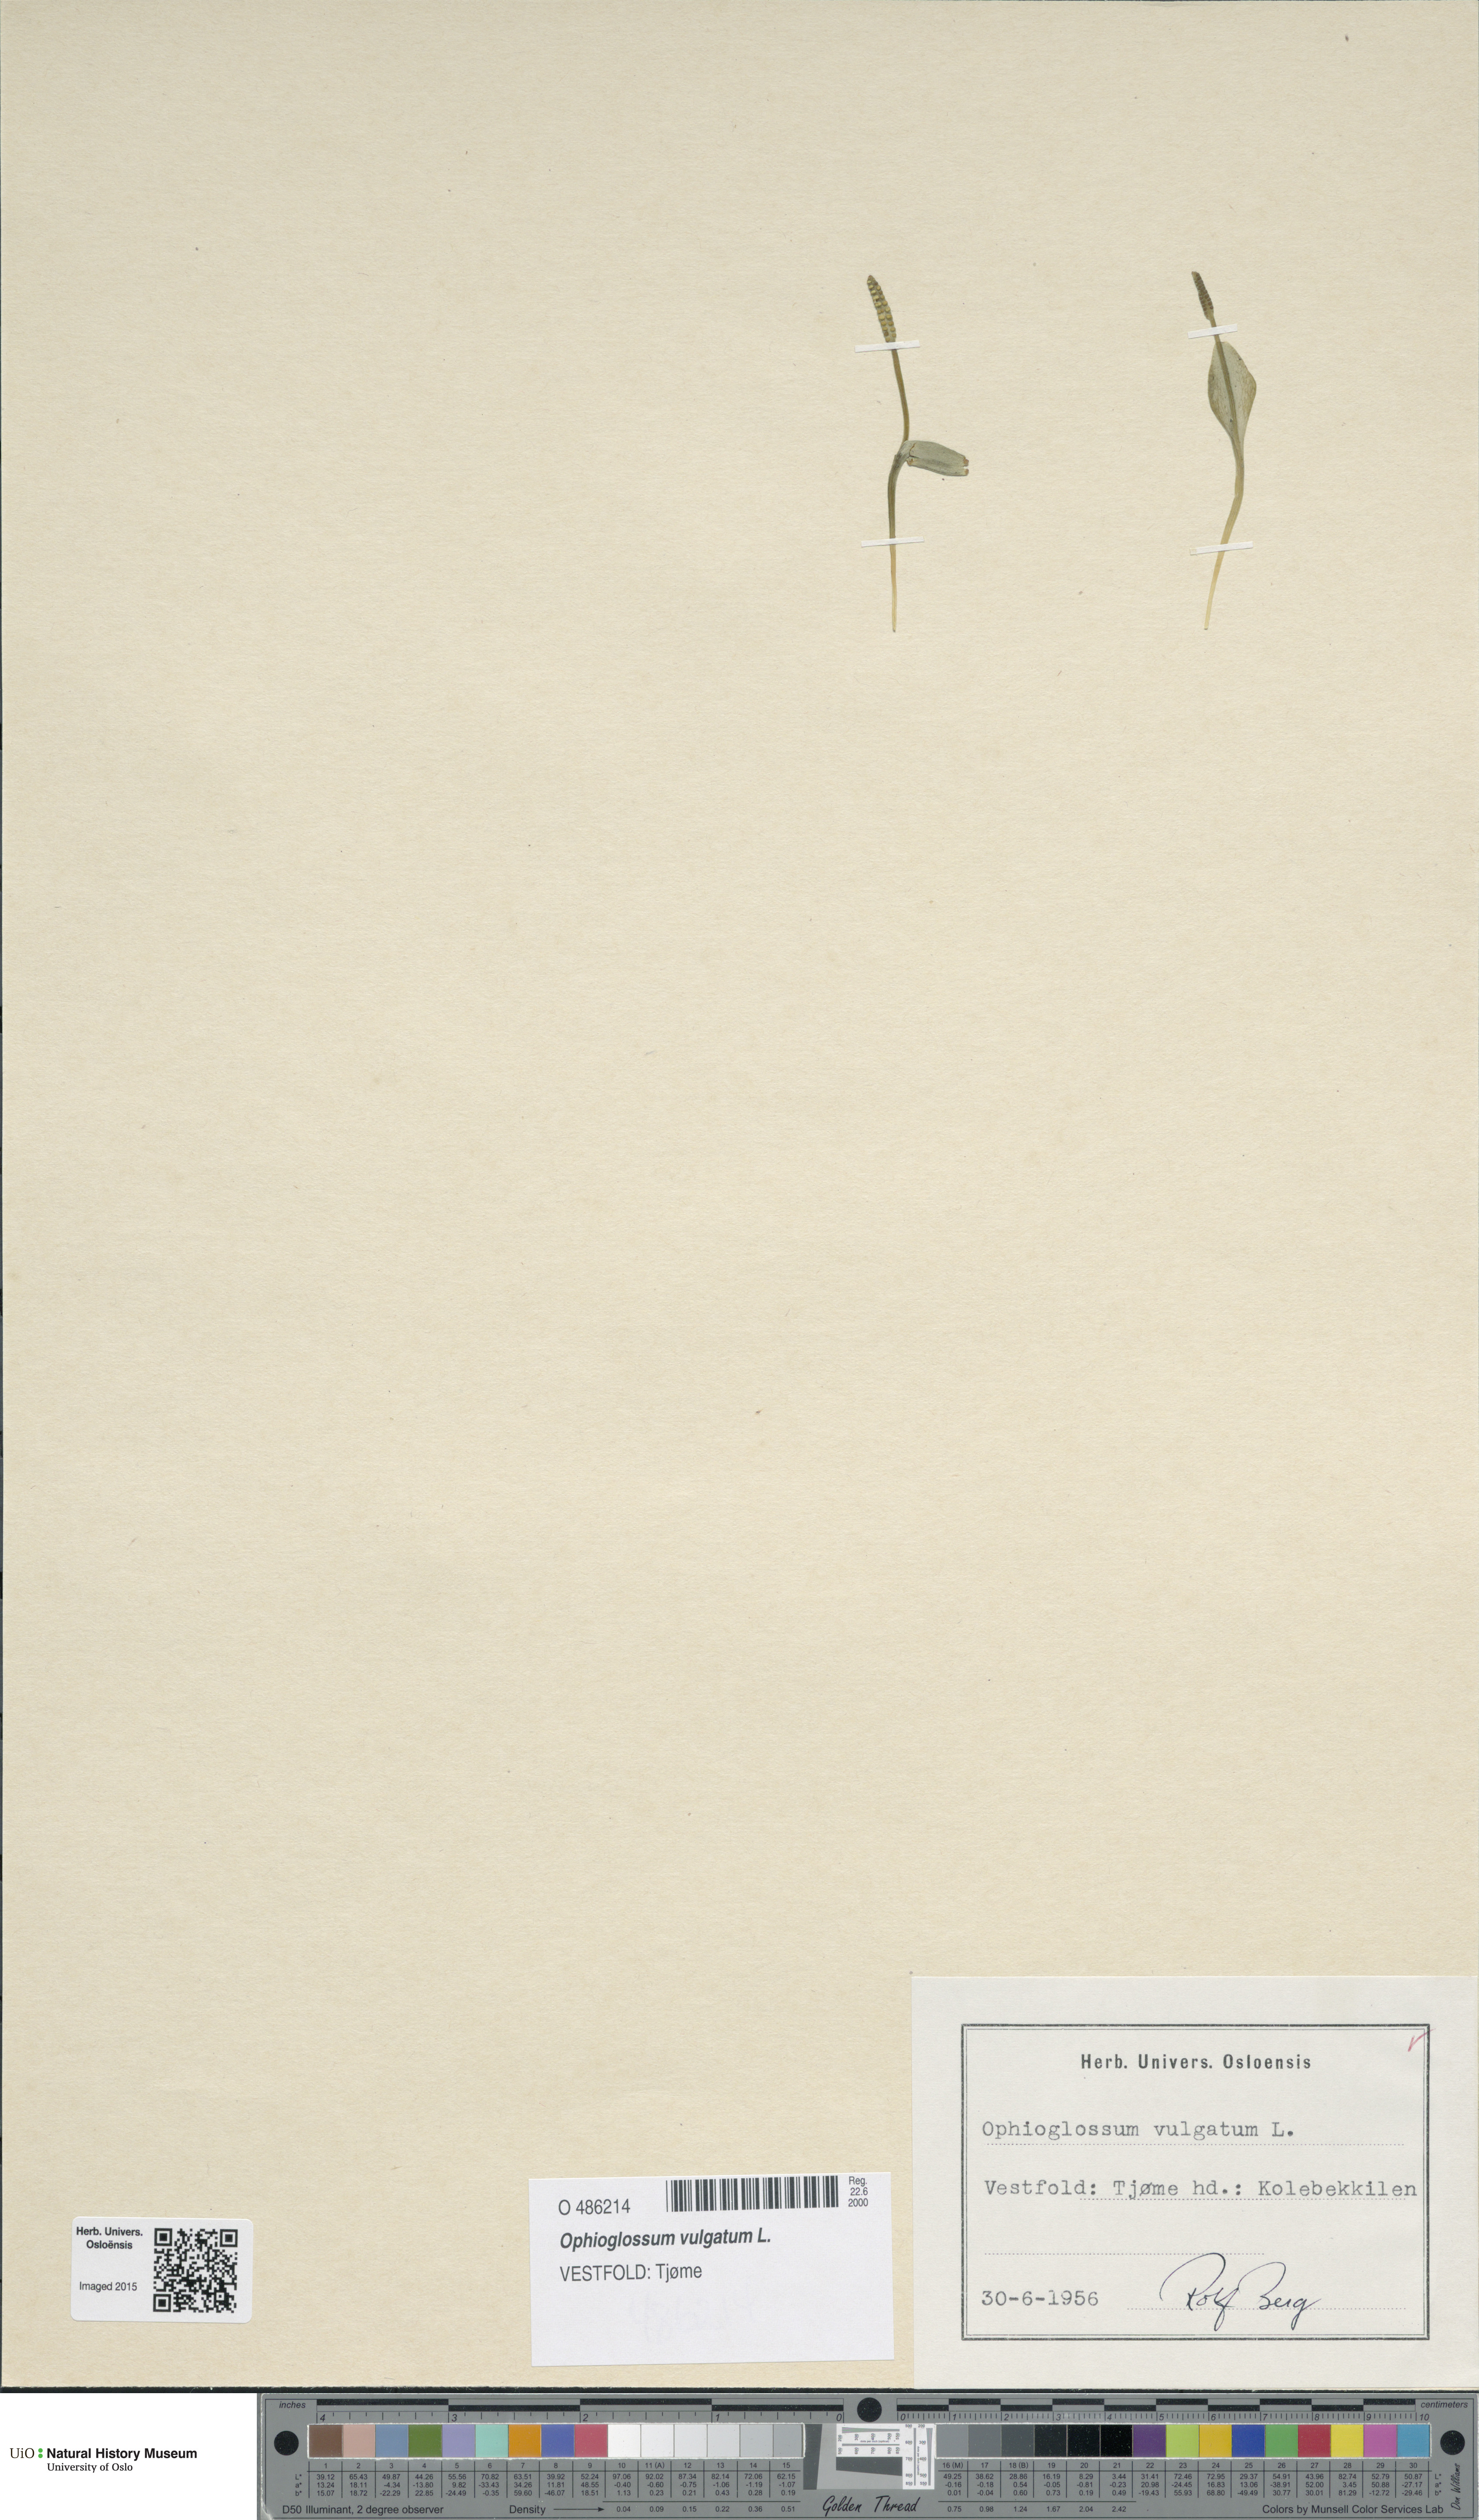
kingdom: Plantae
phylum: Tracheophyta
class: Polypodiopsida
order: Ophioglossales
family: Ophioglossaceae
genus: Ophioglossum
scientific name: Ophioglossum vulgatum
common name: Adder's-tongue
